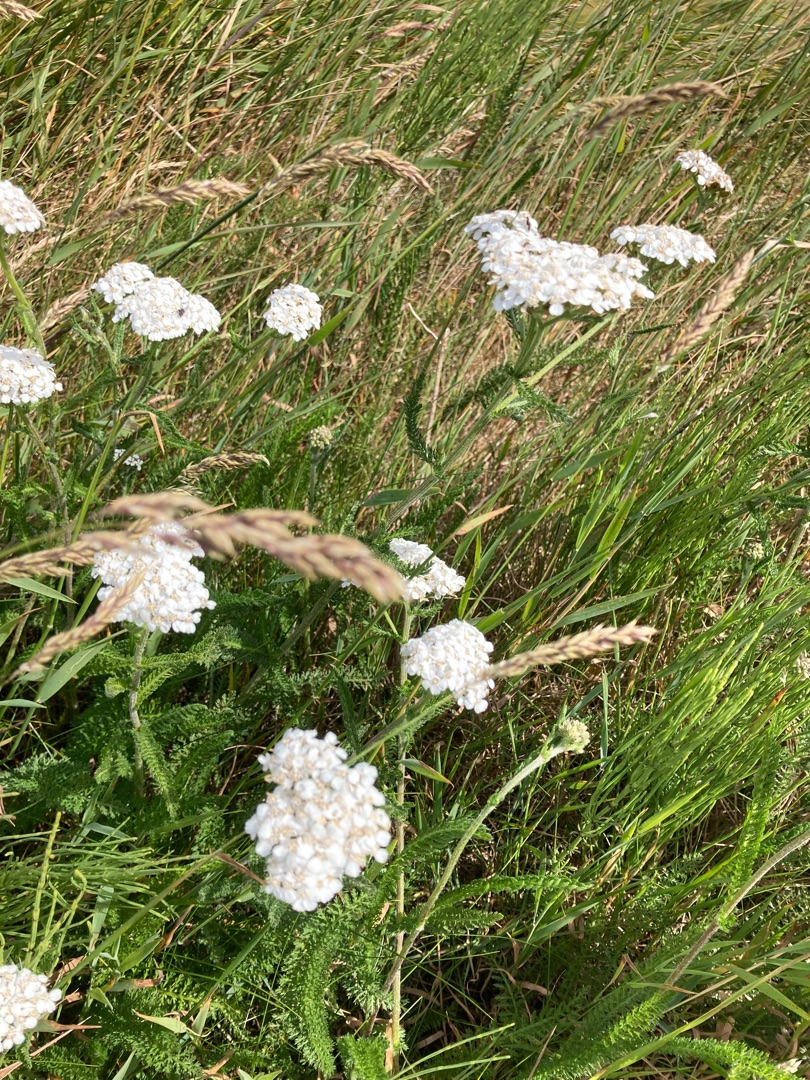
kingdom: Plantae
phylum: Tracheophyta
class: Magnoliopsida
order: Asterales
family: Asteraceae
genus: Achillea
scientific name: Achillea millefolium
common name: Almindelig røllike
